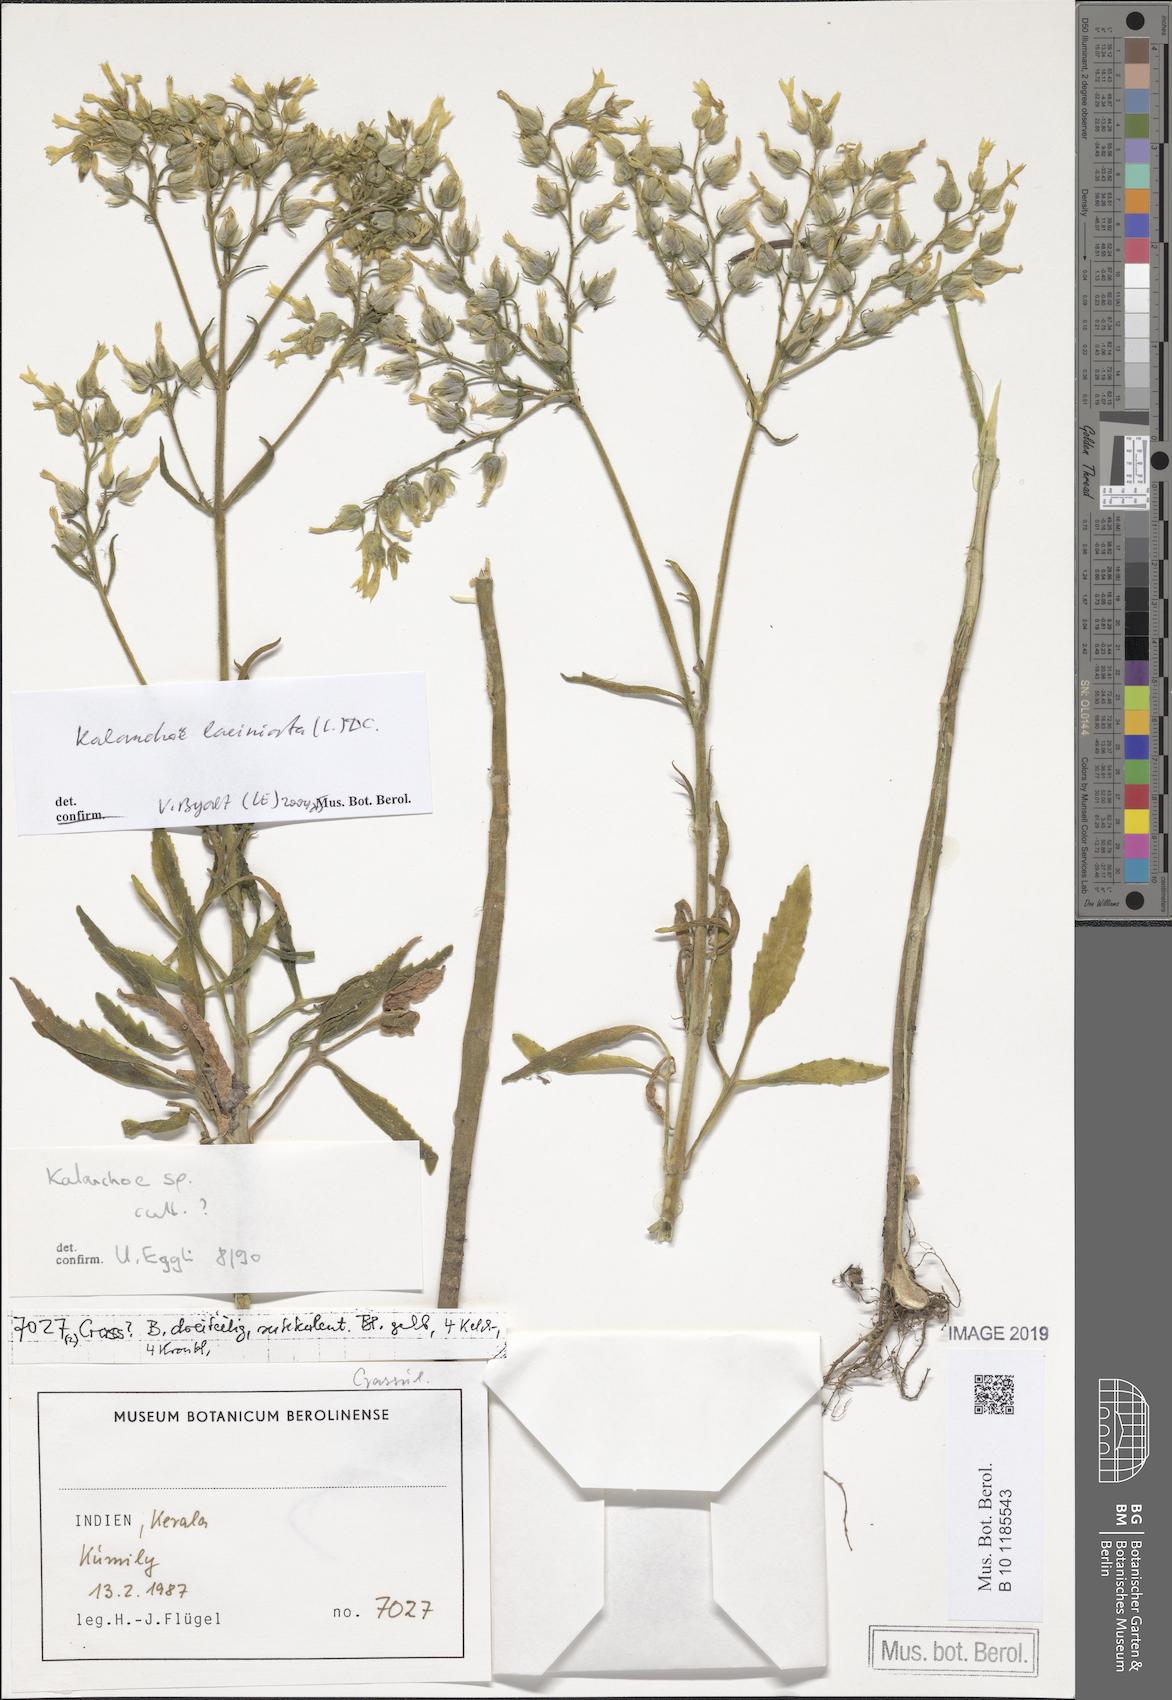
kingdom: Plantae
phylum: Tracheophyta
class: Magnoliopsida
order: Saxifragales
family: Crassulaceae
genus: Kalanchoe
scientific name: Kalanchoe laciniata
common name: Christmastree plant
